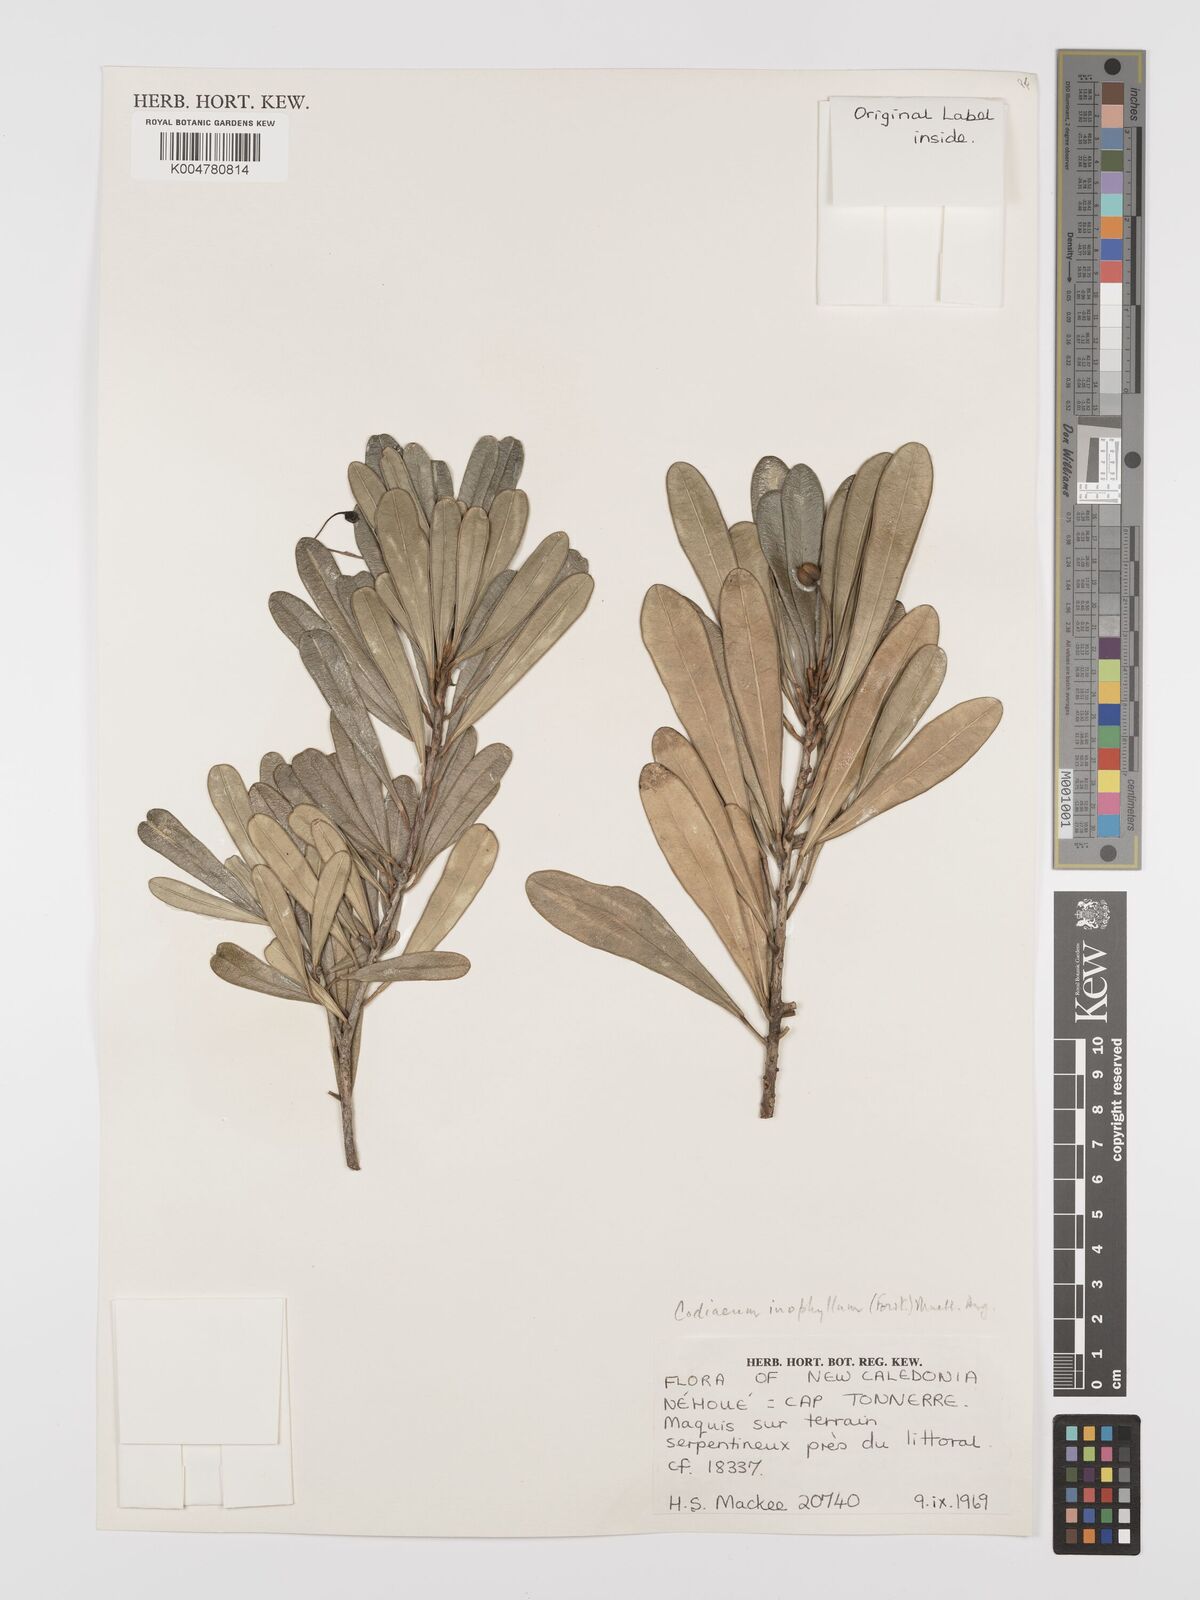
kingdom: Plantae
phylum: Tracheophyta
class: Magnoliopsida
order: Malpighiales
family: Euphorbiaceae
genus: Codiaeum
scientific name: Codiaeum
